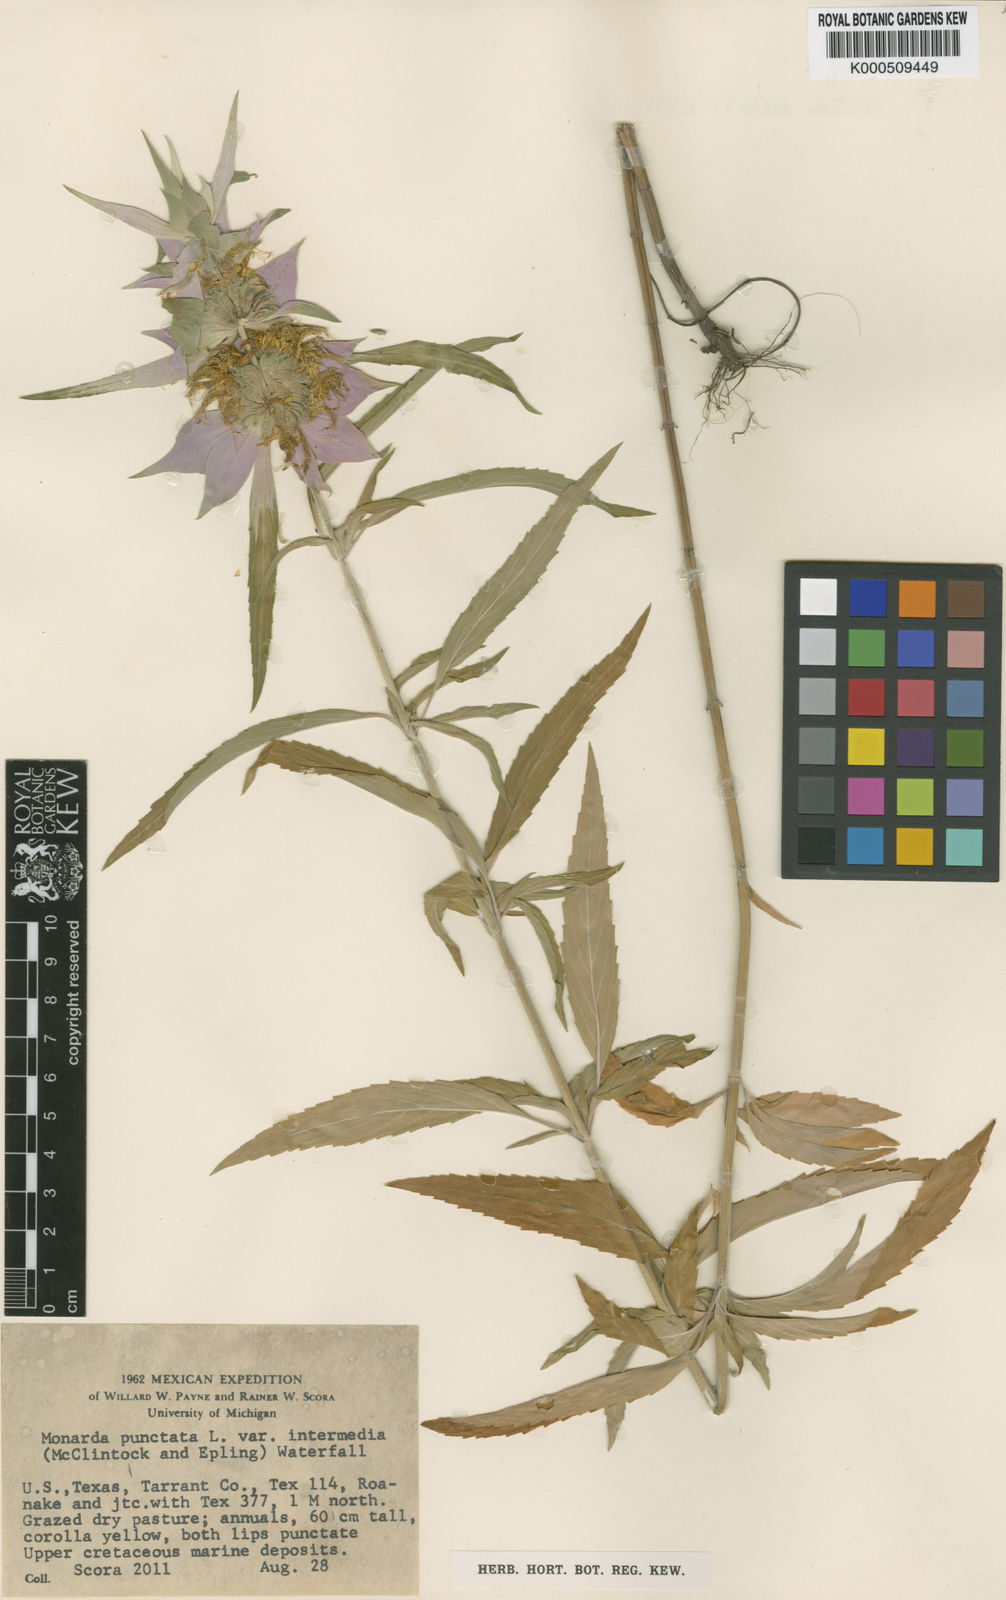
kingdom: Plantae
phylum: Tracheophyta
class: Magnoliopsida
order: Lamiales
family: Lamiaceae
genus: Monarda
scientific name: Monarda punctata
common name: Dotted monarda
